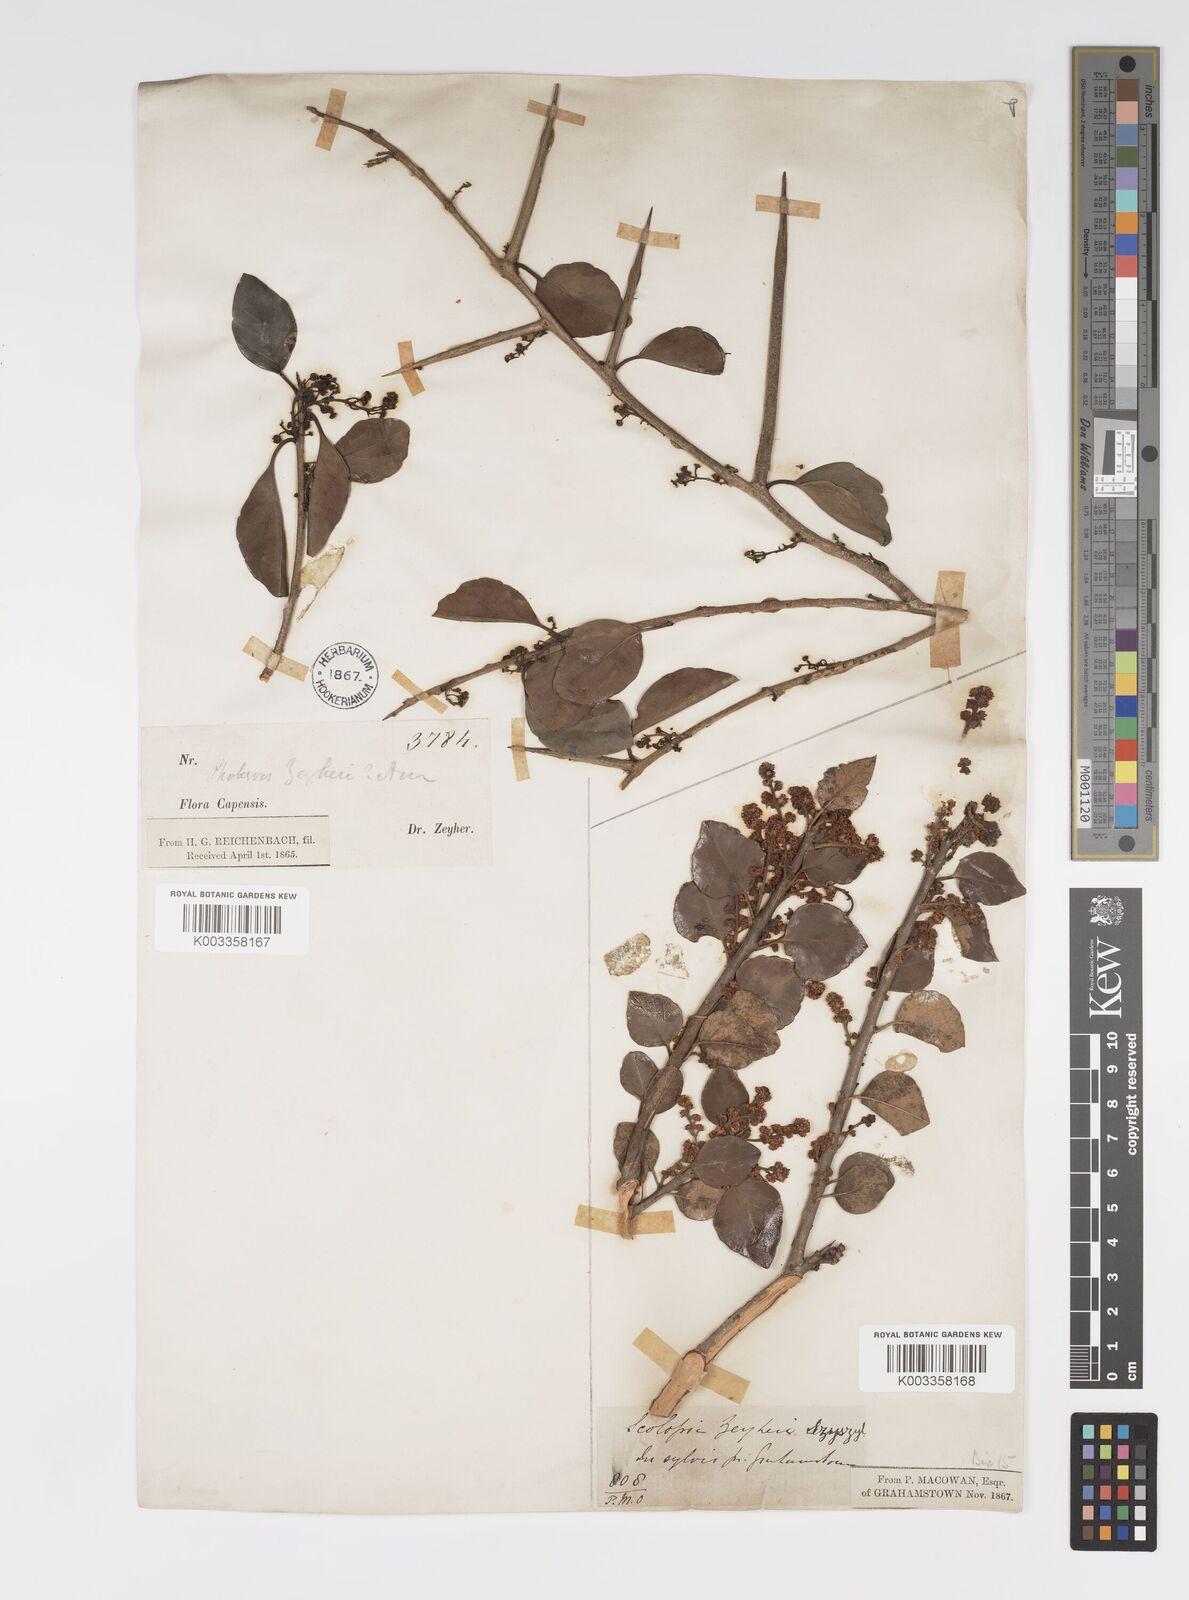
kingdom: Plantae
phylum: Tracheophyta
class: Magnoliopsida
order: Malpighiales
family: Salicaceae
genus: Scolopia
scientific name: Scolopia zeyheri
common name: Thorn pear
